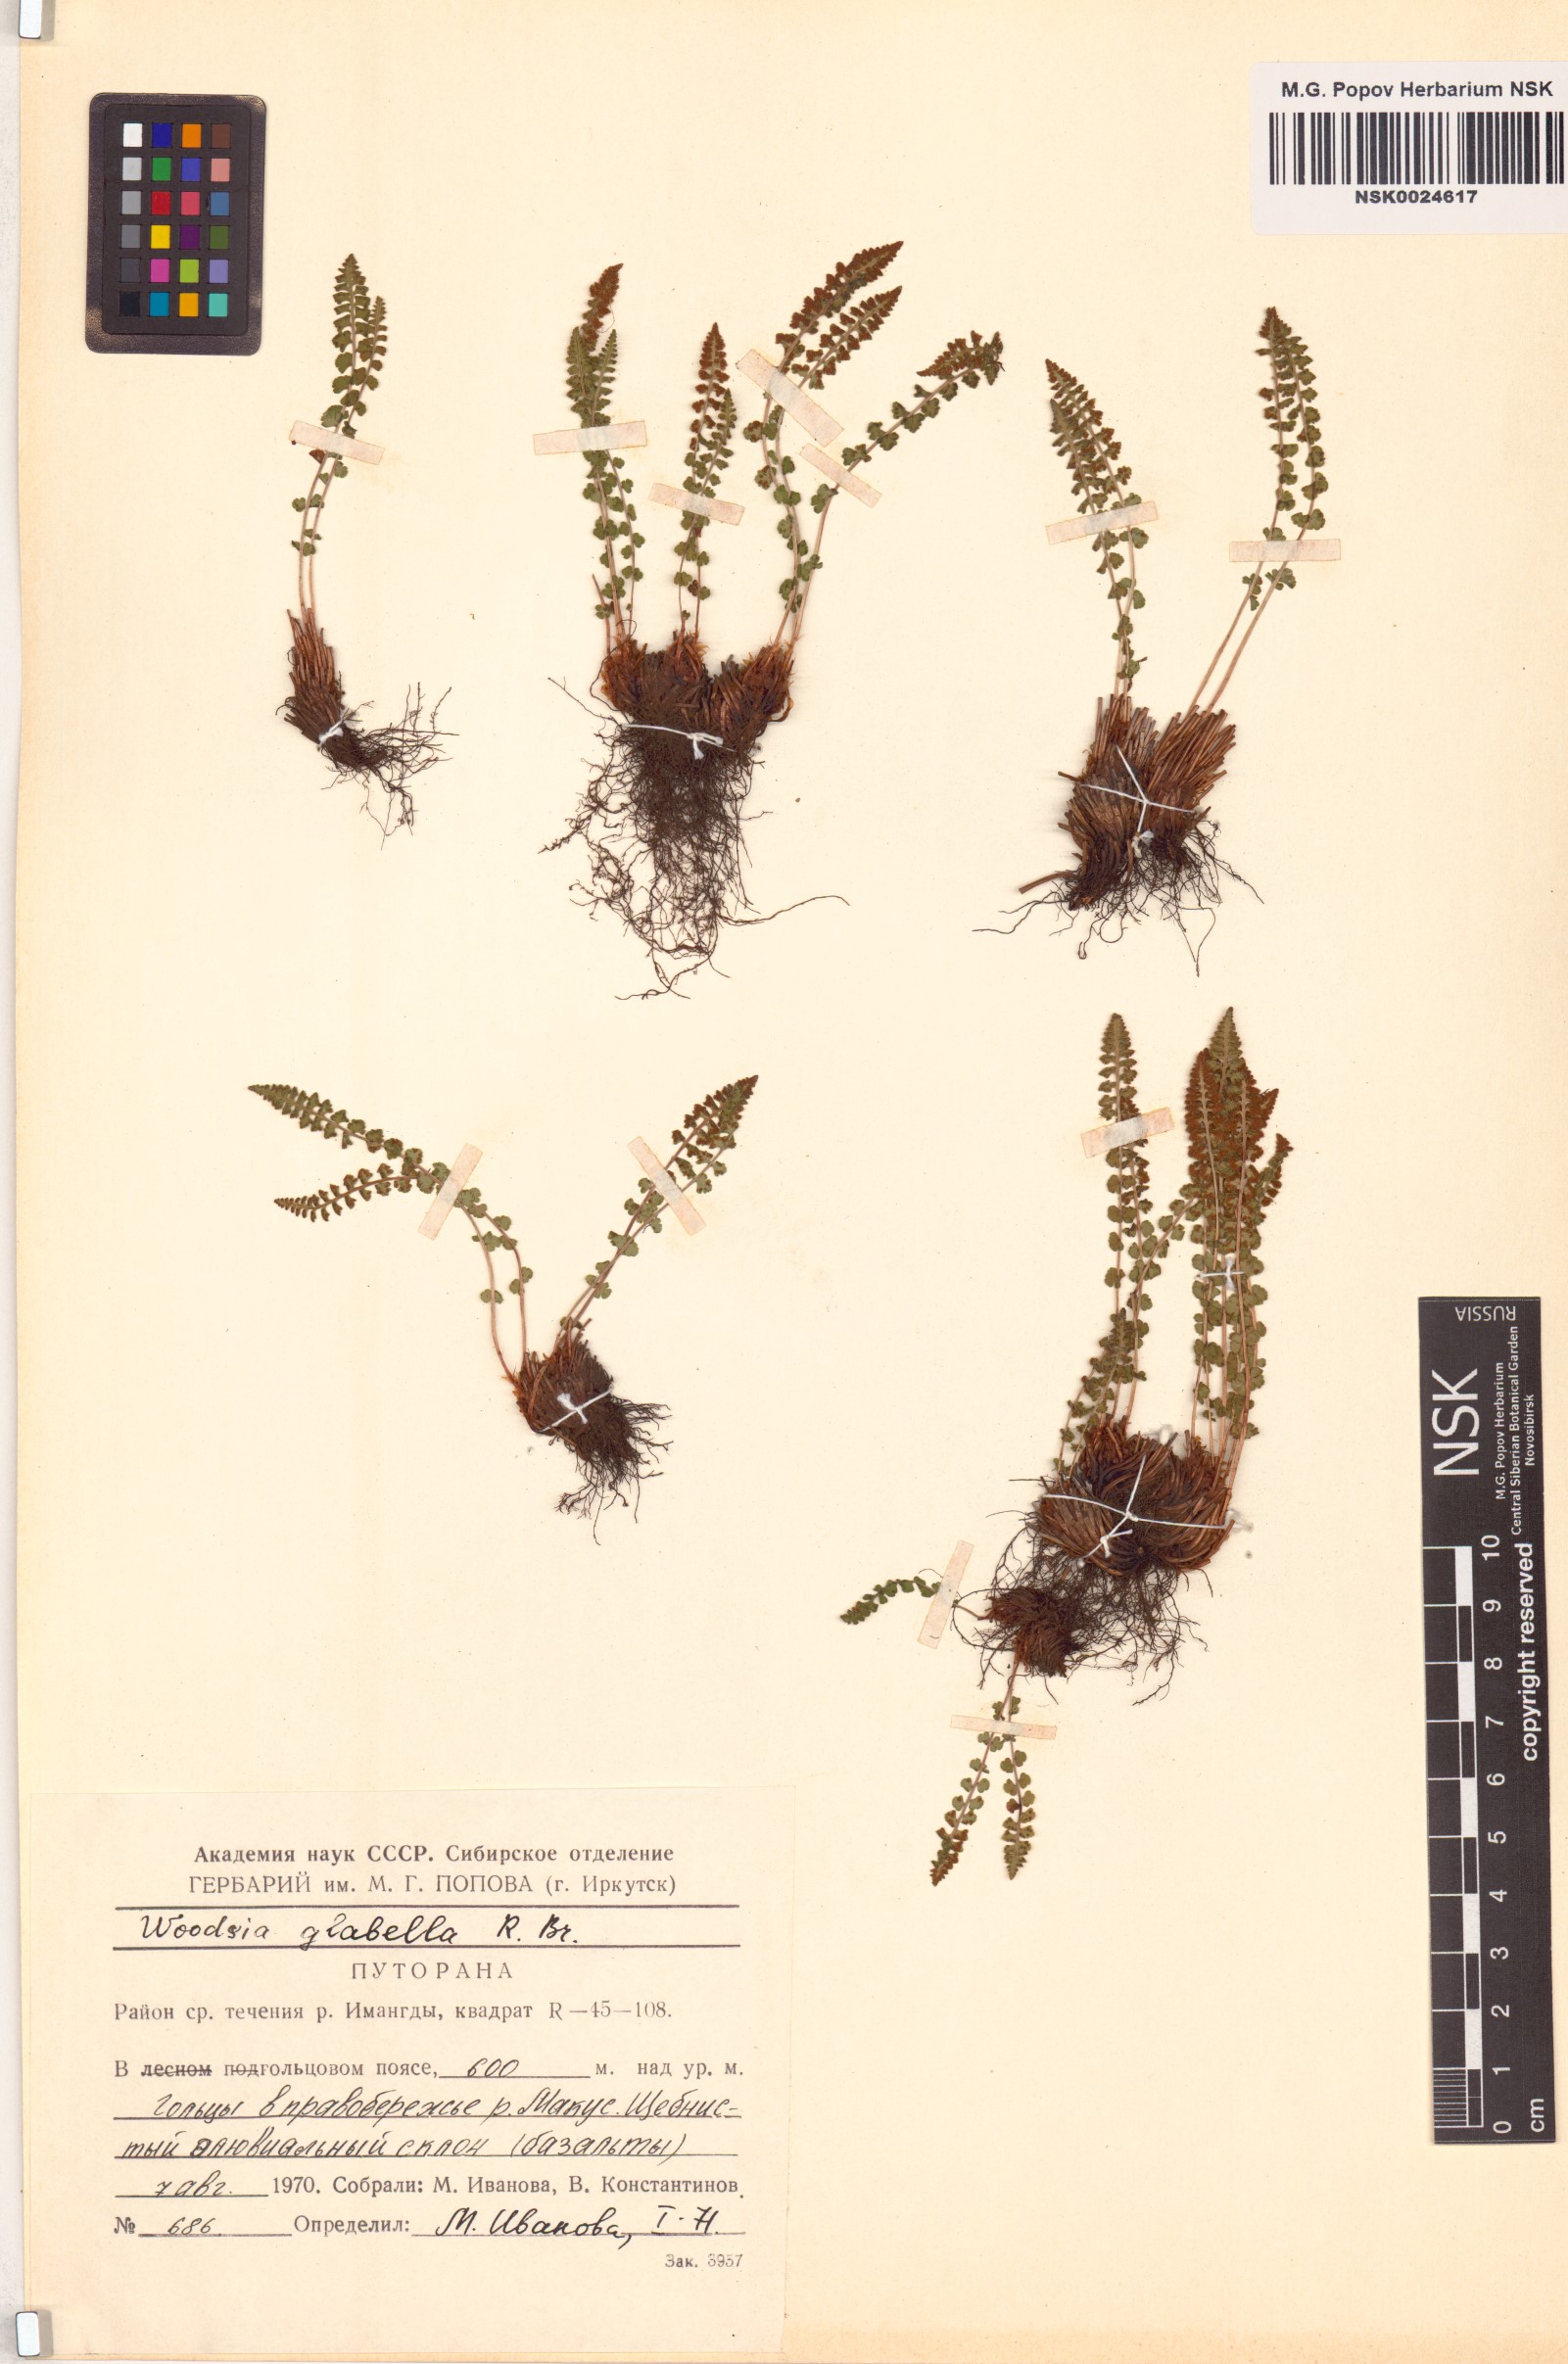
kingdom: Plantae
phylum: Tracheophyta
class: Polypodiopsida
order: Polypodiales
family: Woodsiaceae
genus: Woodsia
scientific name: Woodsia glabella
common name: Smooth woodsia
